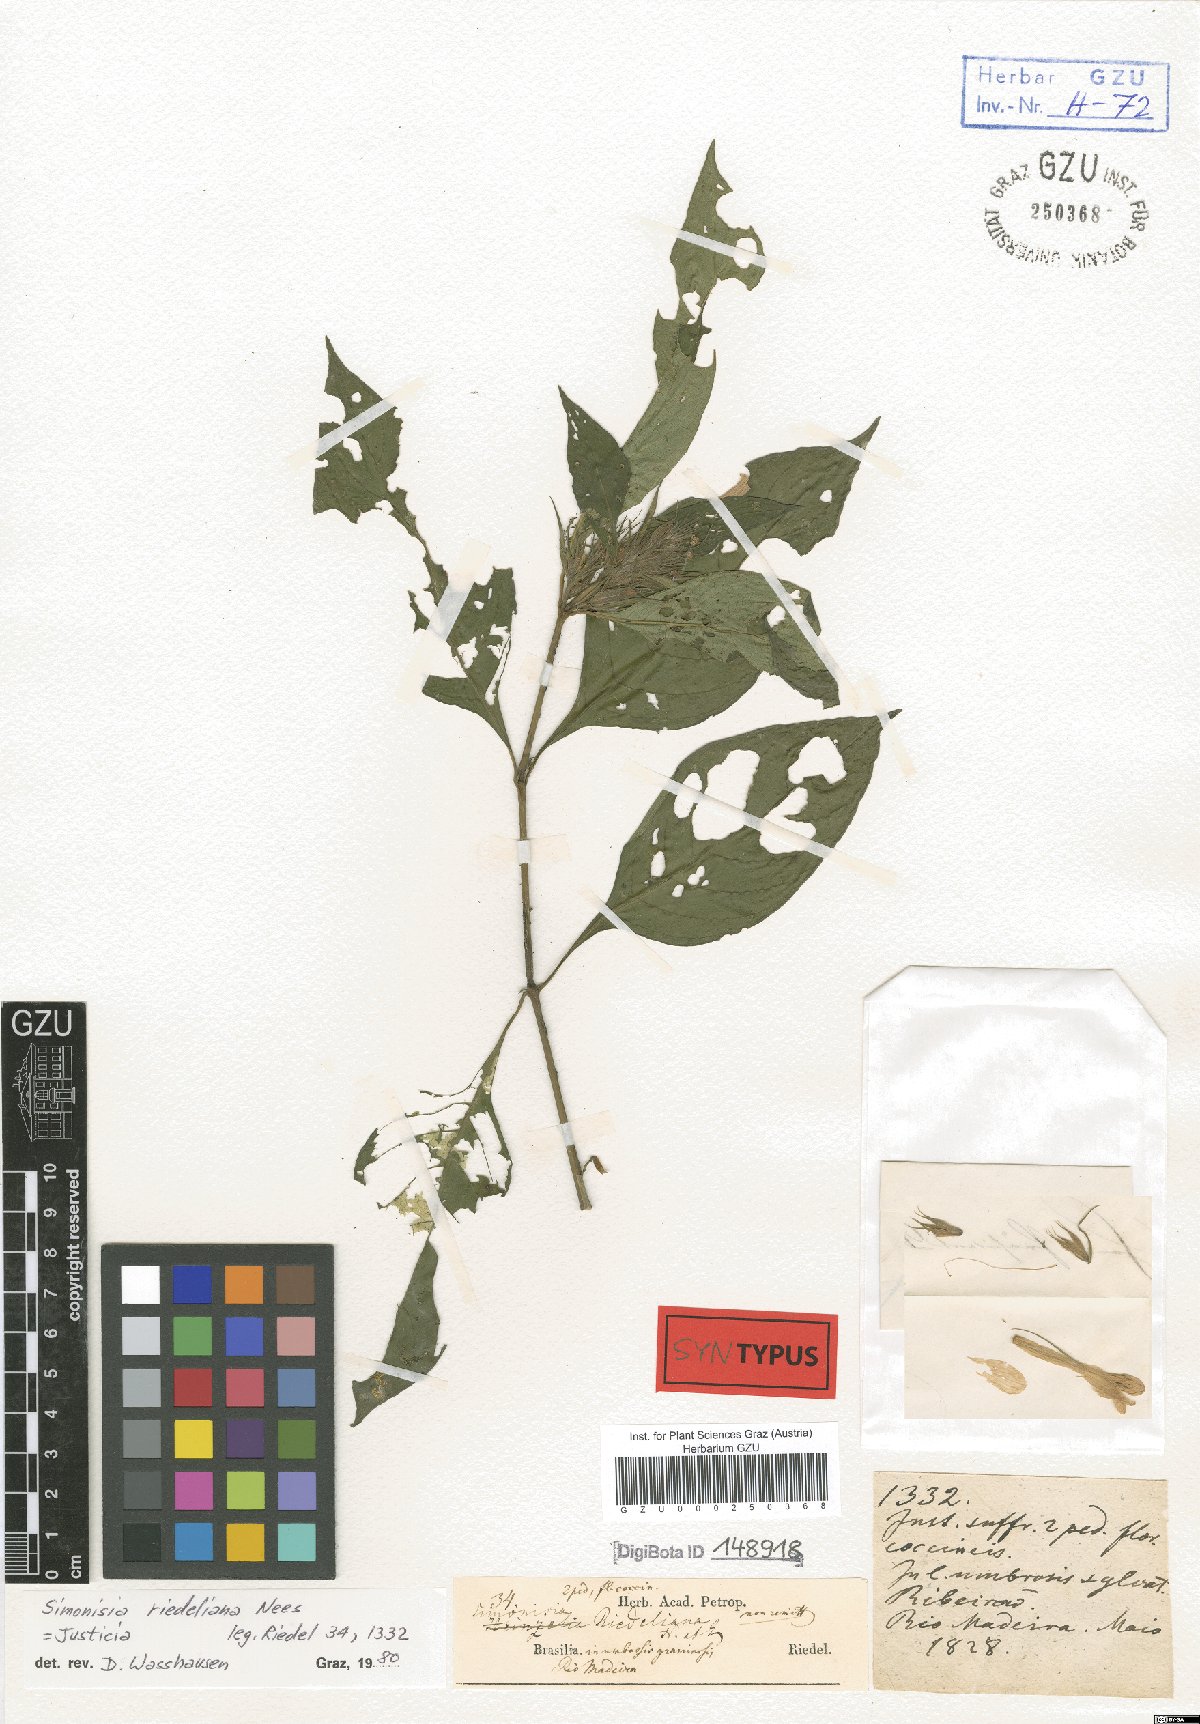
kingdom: Plantae
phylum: Tracheophyta
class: Magnoliopsida
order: Lamiales
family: Acanthaceae
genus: Justicia
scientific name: Justicia riedeliana
